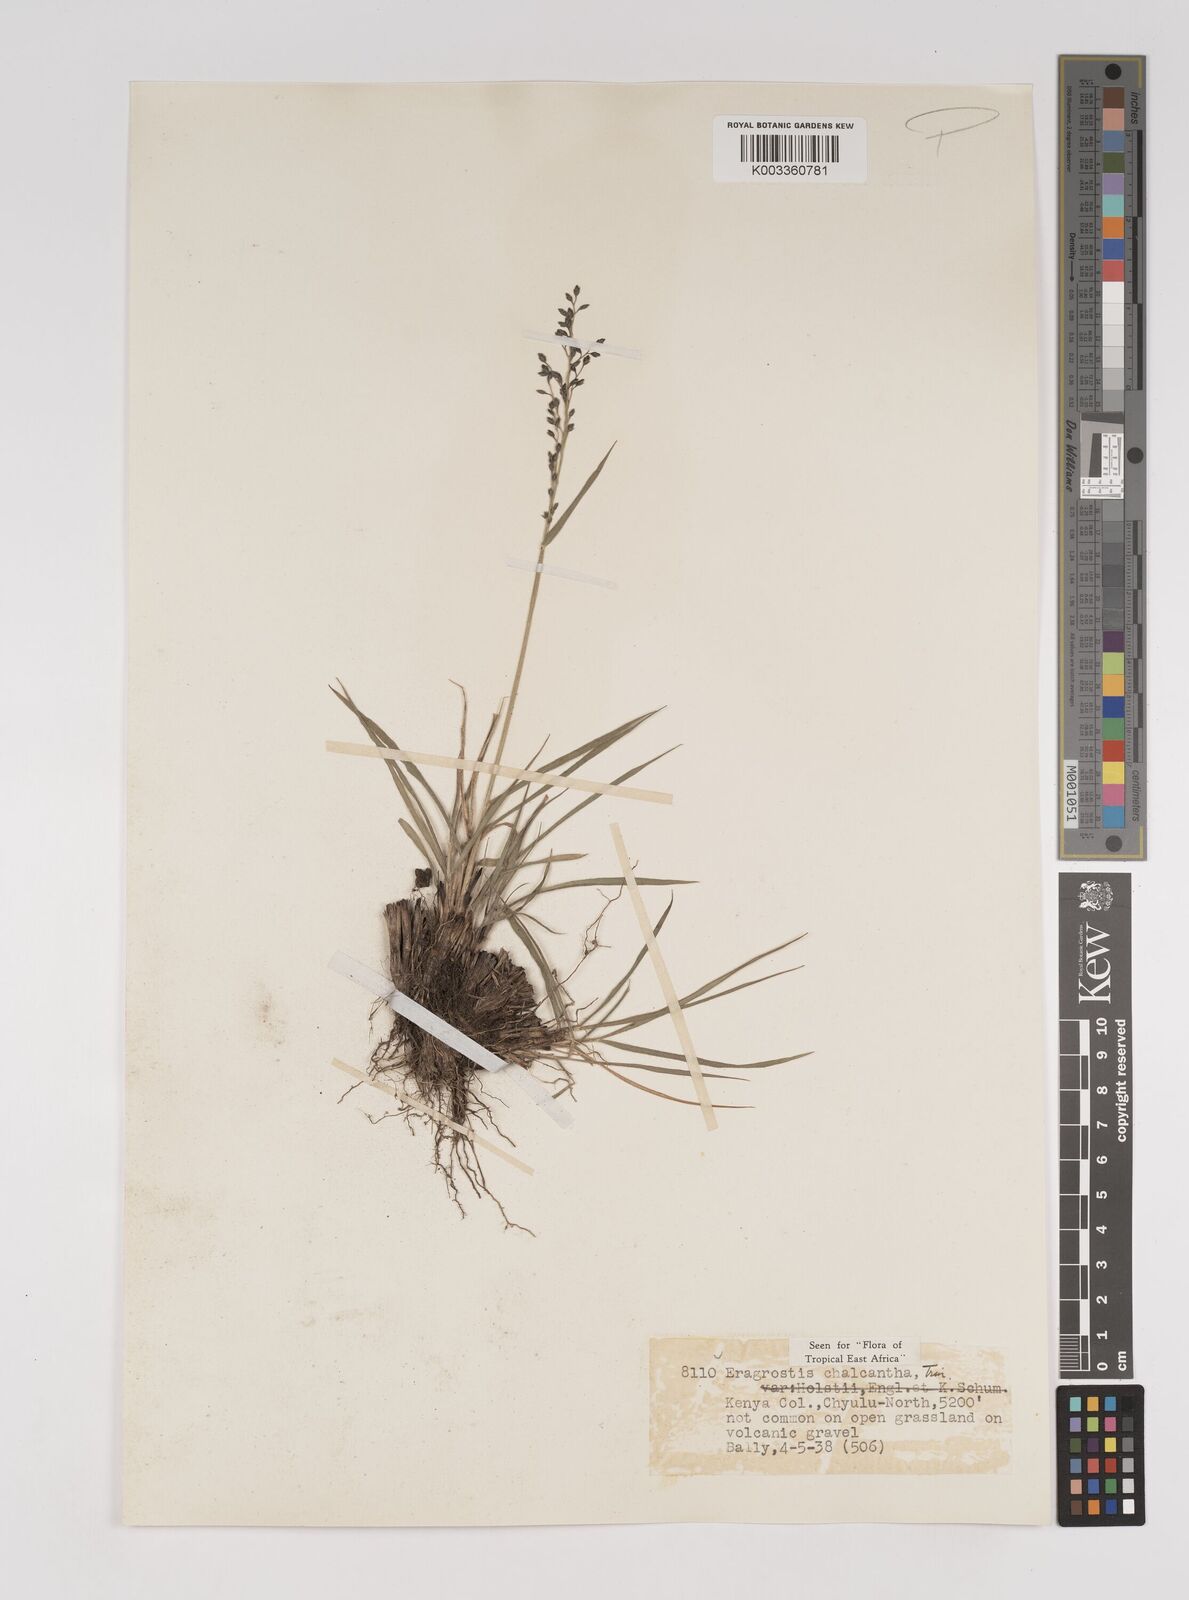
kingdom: Plantae
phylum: Tracheophyta
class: Liliopsida
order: Poales
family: Poaceae
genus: Eragrostis
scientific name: Eragrostis racemosa
